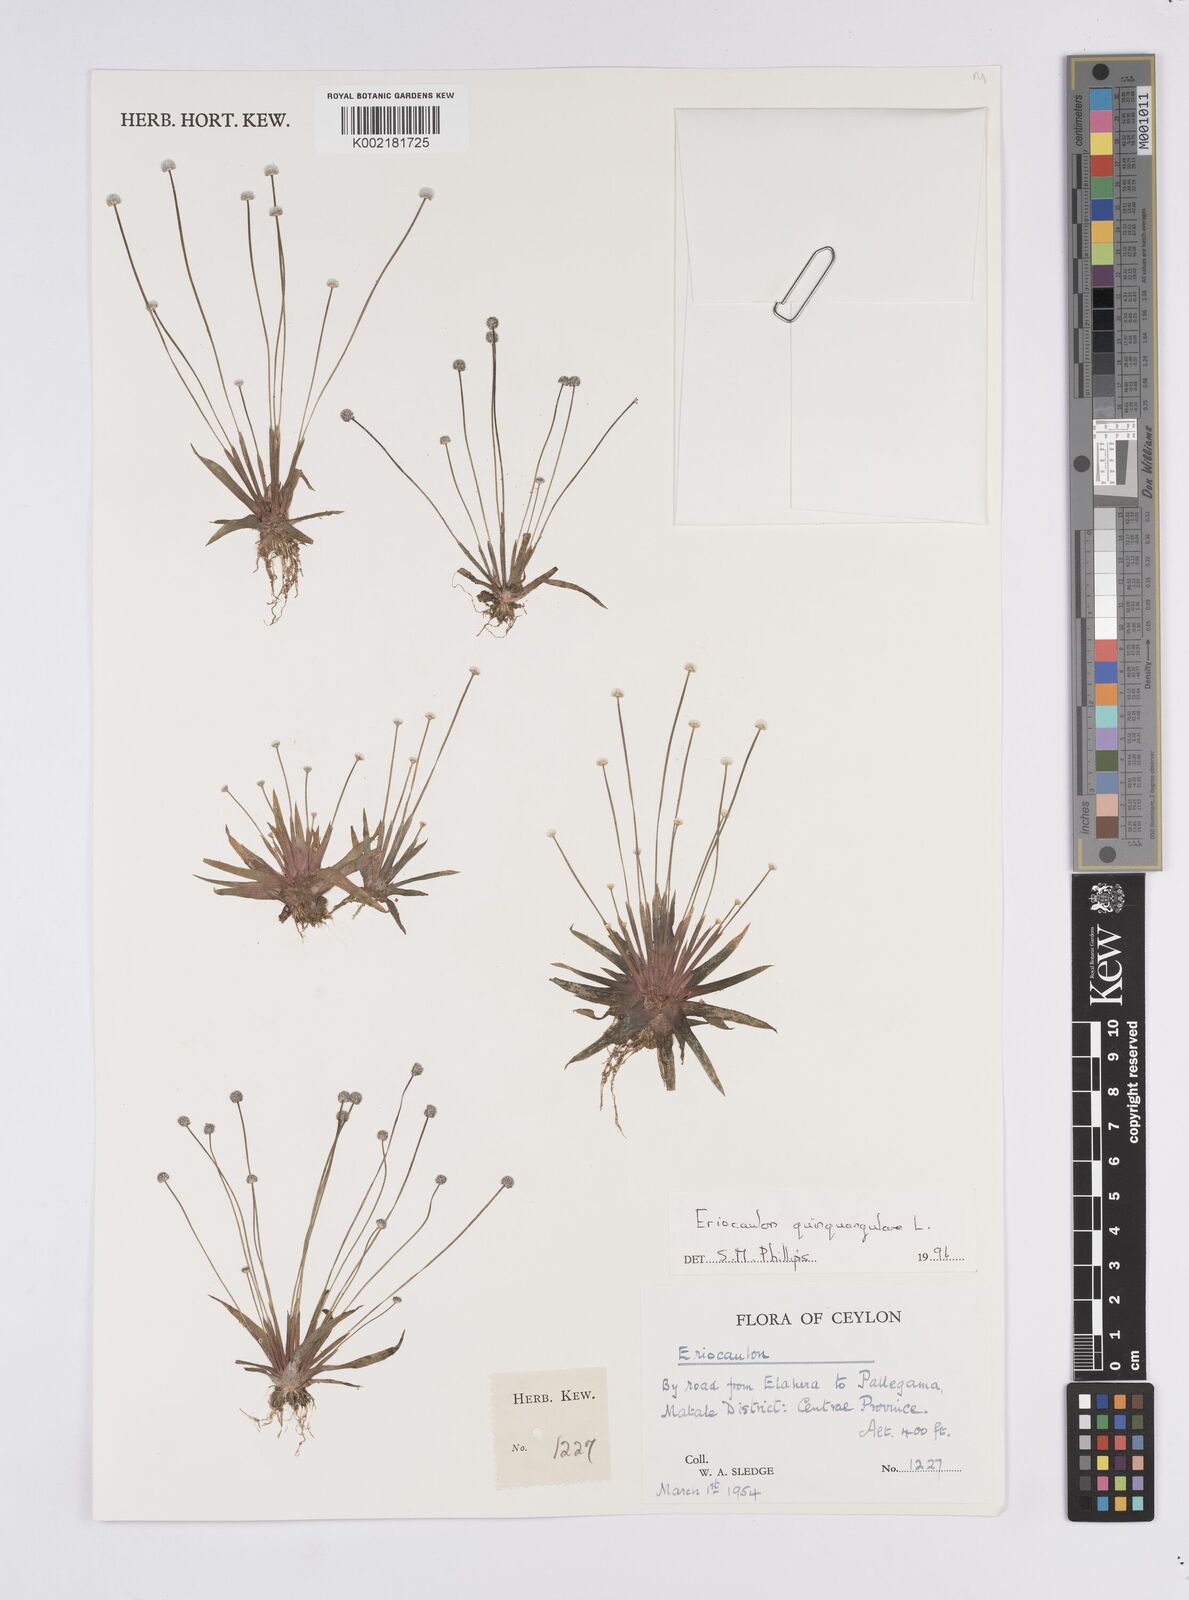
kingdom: Plantae
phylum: Tracheophyta
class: Liliopsida
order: Poales
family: Eriocaulaceae
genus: Eriocaulon
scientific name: Eriocaulon quinquangulare
